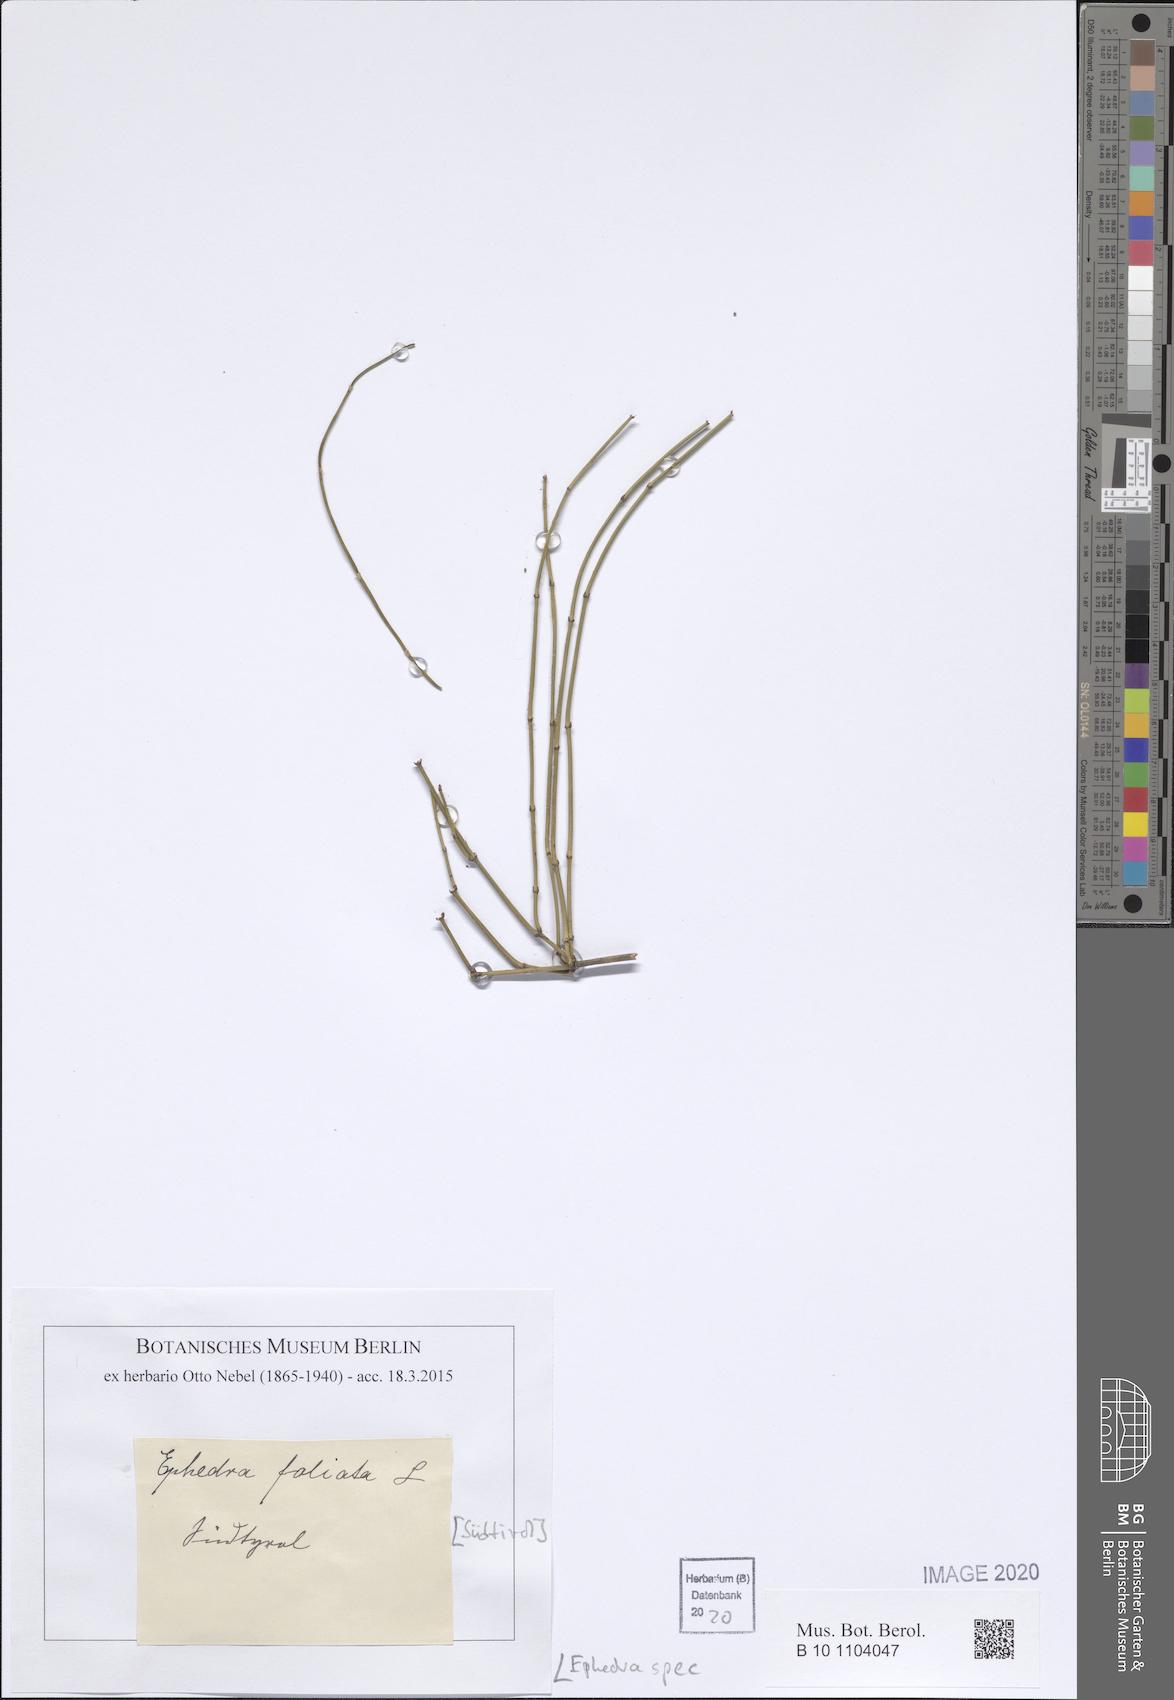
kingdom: Plantae
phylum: Tracheophyta
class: Gnetopsida
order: Ephedrales
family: Ephedraceae
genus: Ephedra
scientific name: Ephedra
